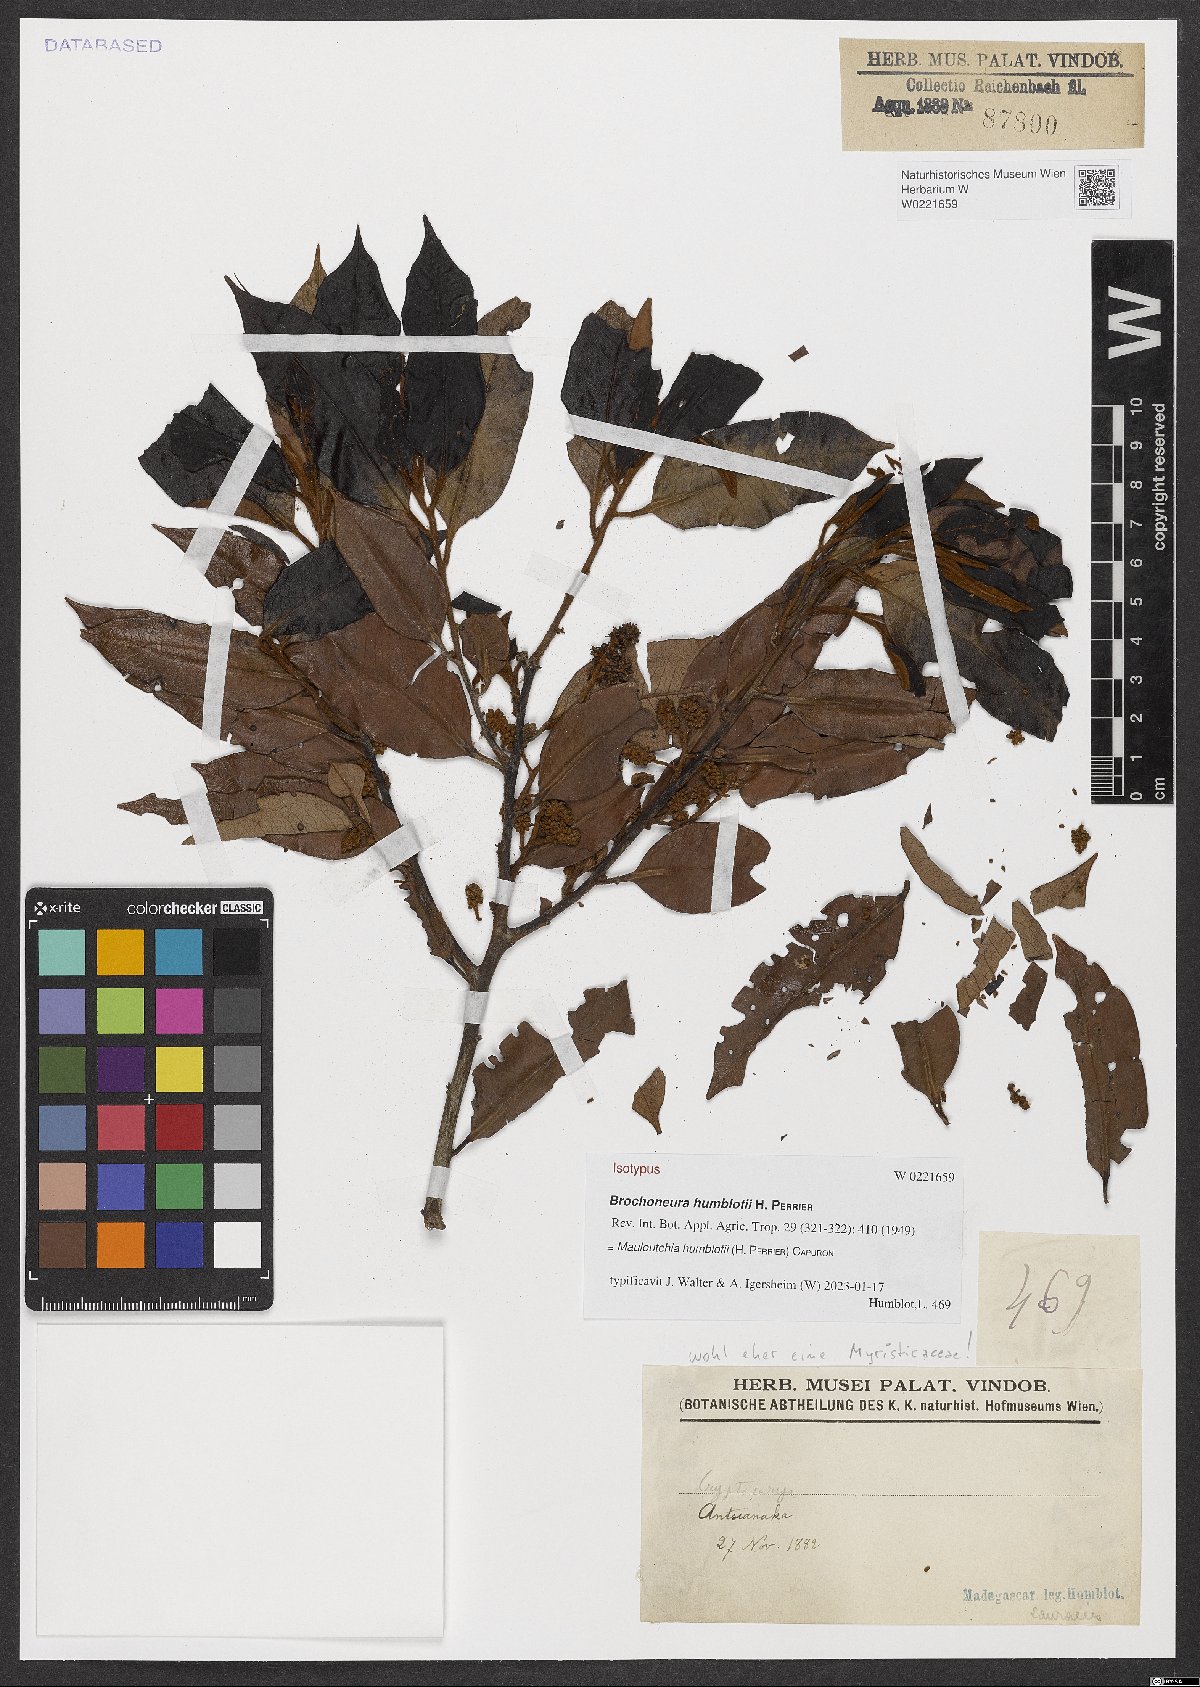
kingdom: Plantae
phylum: Tracheophyta
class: Magnoliopsida
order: Magnoliales
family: Myristicaceae
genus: Mauloutchia
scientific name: Mauloutchia humblotii
